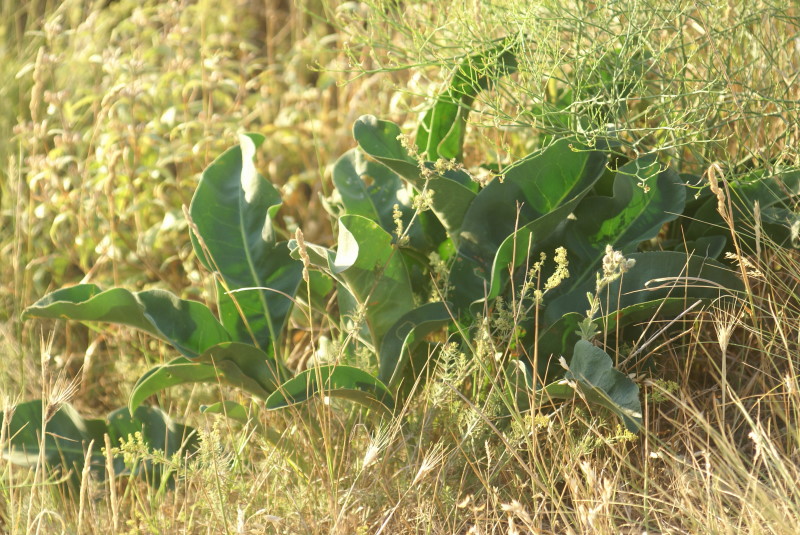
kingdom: Plantae
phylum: Tracheophyta
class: Magnoliopsida
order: Brassicales
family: Brassicaceae
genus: Crambe
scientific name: Crambe maritima
